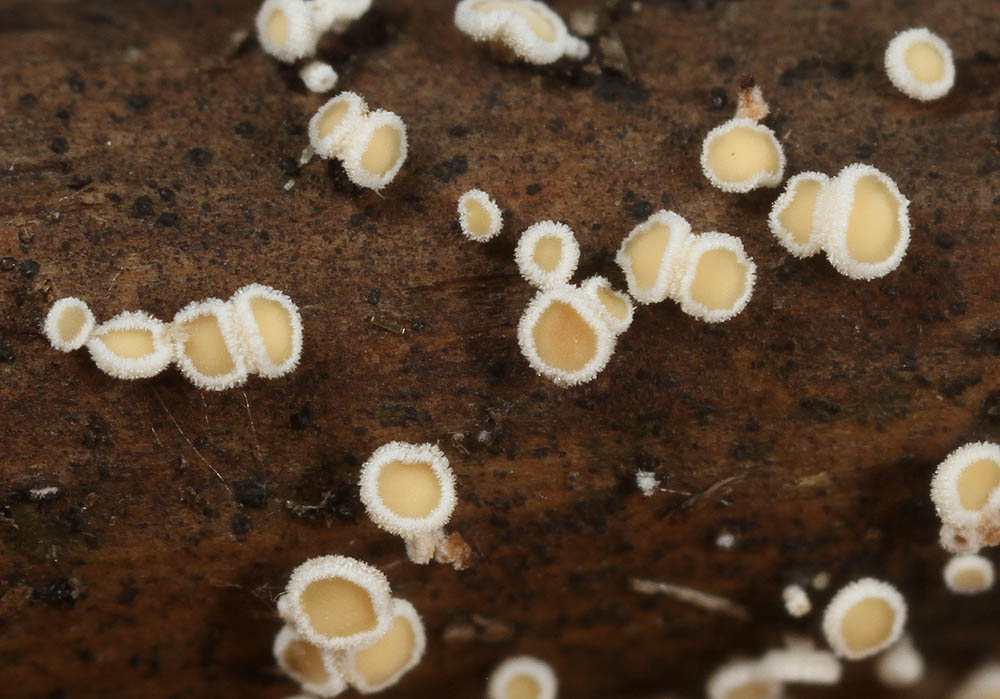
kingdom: Fungi
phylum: Ascomycota
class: Leotiomycetes
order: Helotiales
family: Lachnaceae
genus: Lachnum
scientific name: Lachnum controversum
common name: tagrør-frynseskive
